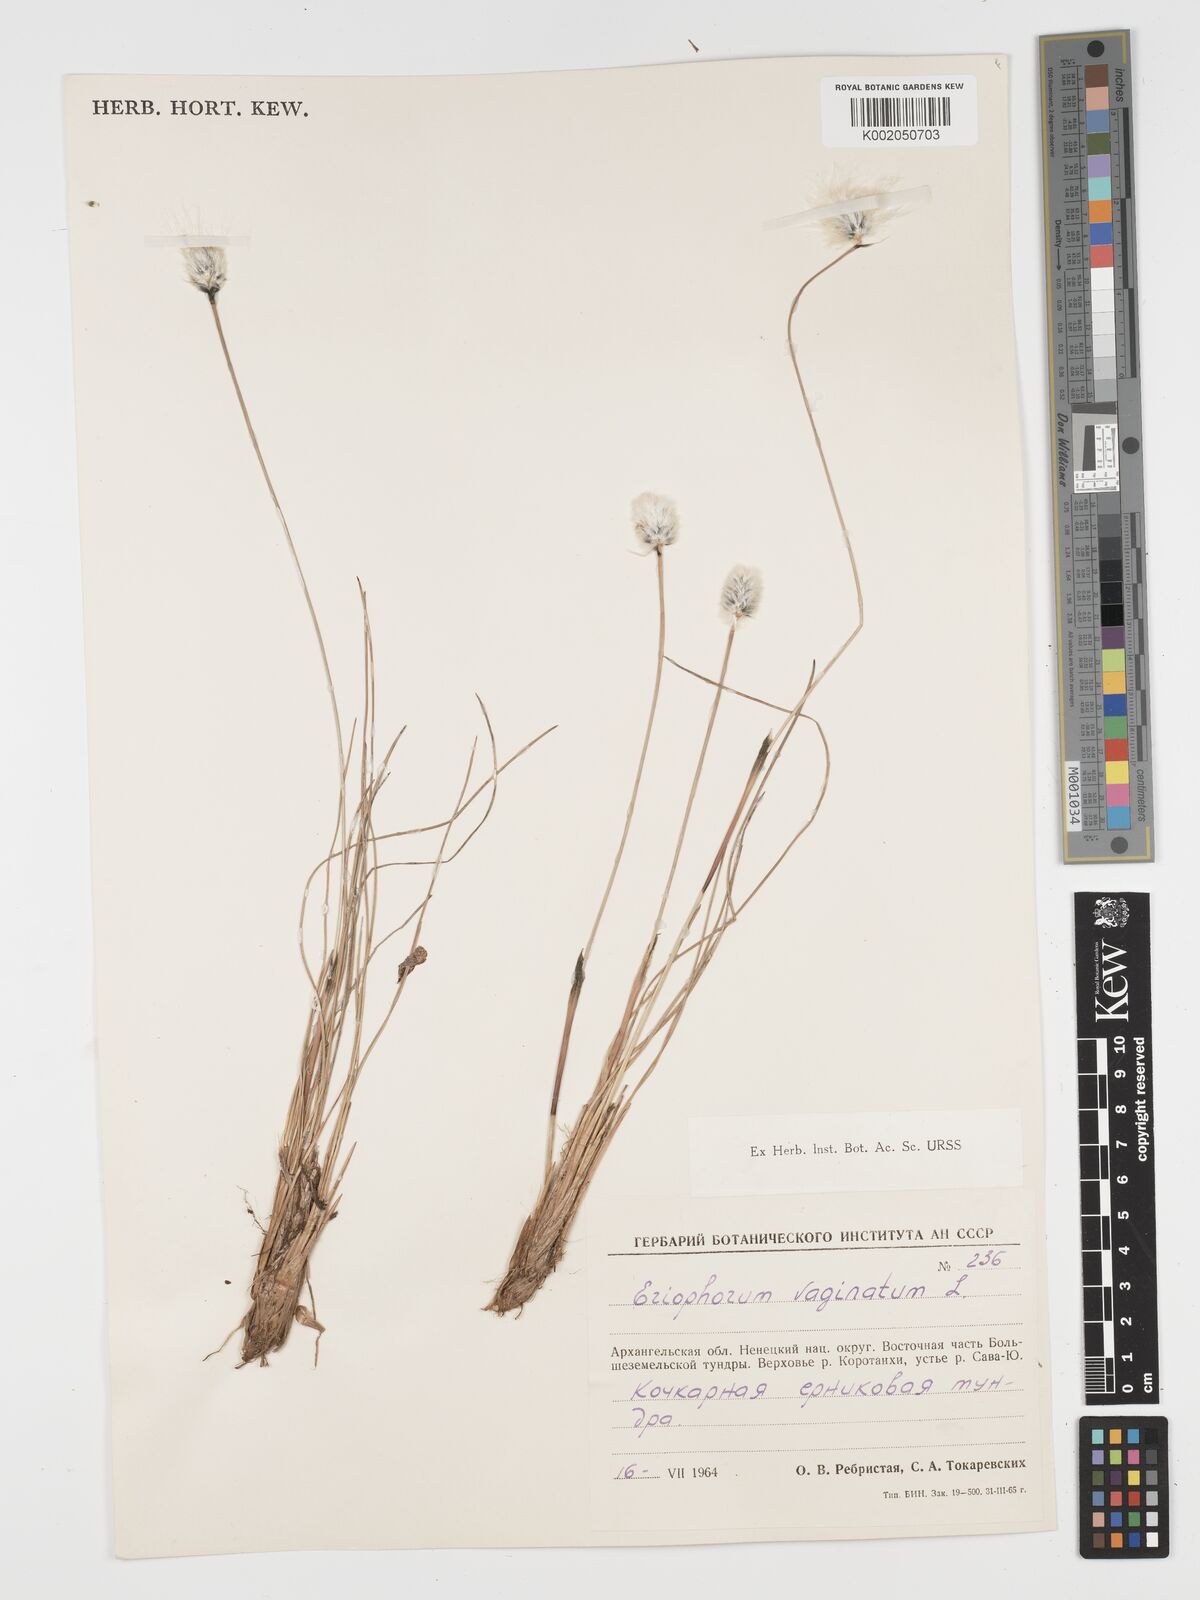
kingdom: Plantae
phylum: Tracheophyta
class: Liliopsida
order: Poales
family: Cyperaceae
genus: Eriophorum
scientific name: Eriophorum vaginatum
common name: Hare's-tail cottongrass
